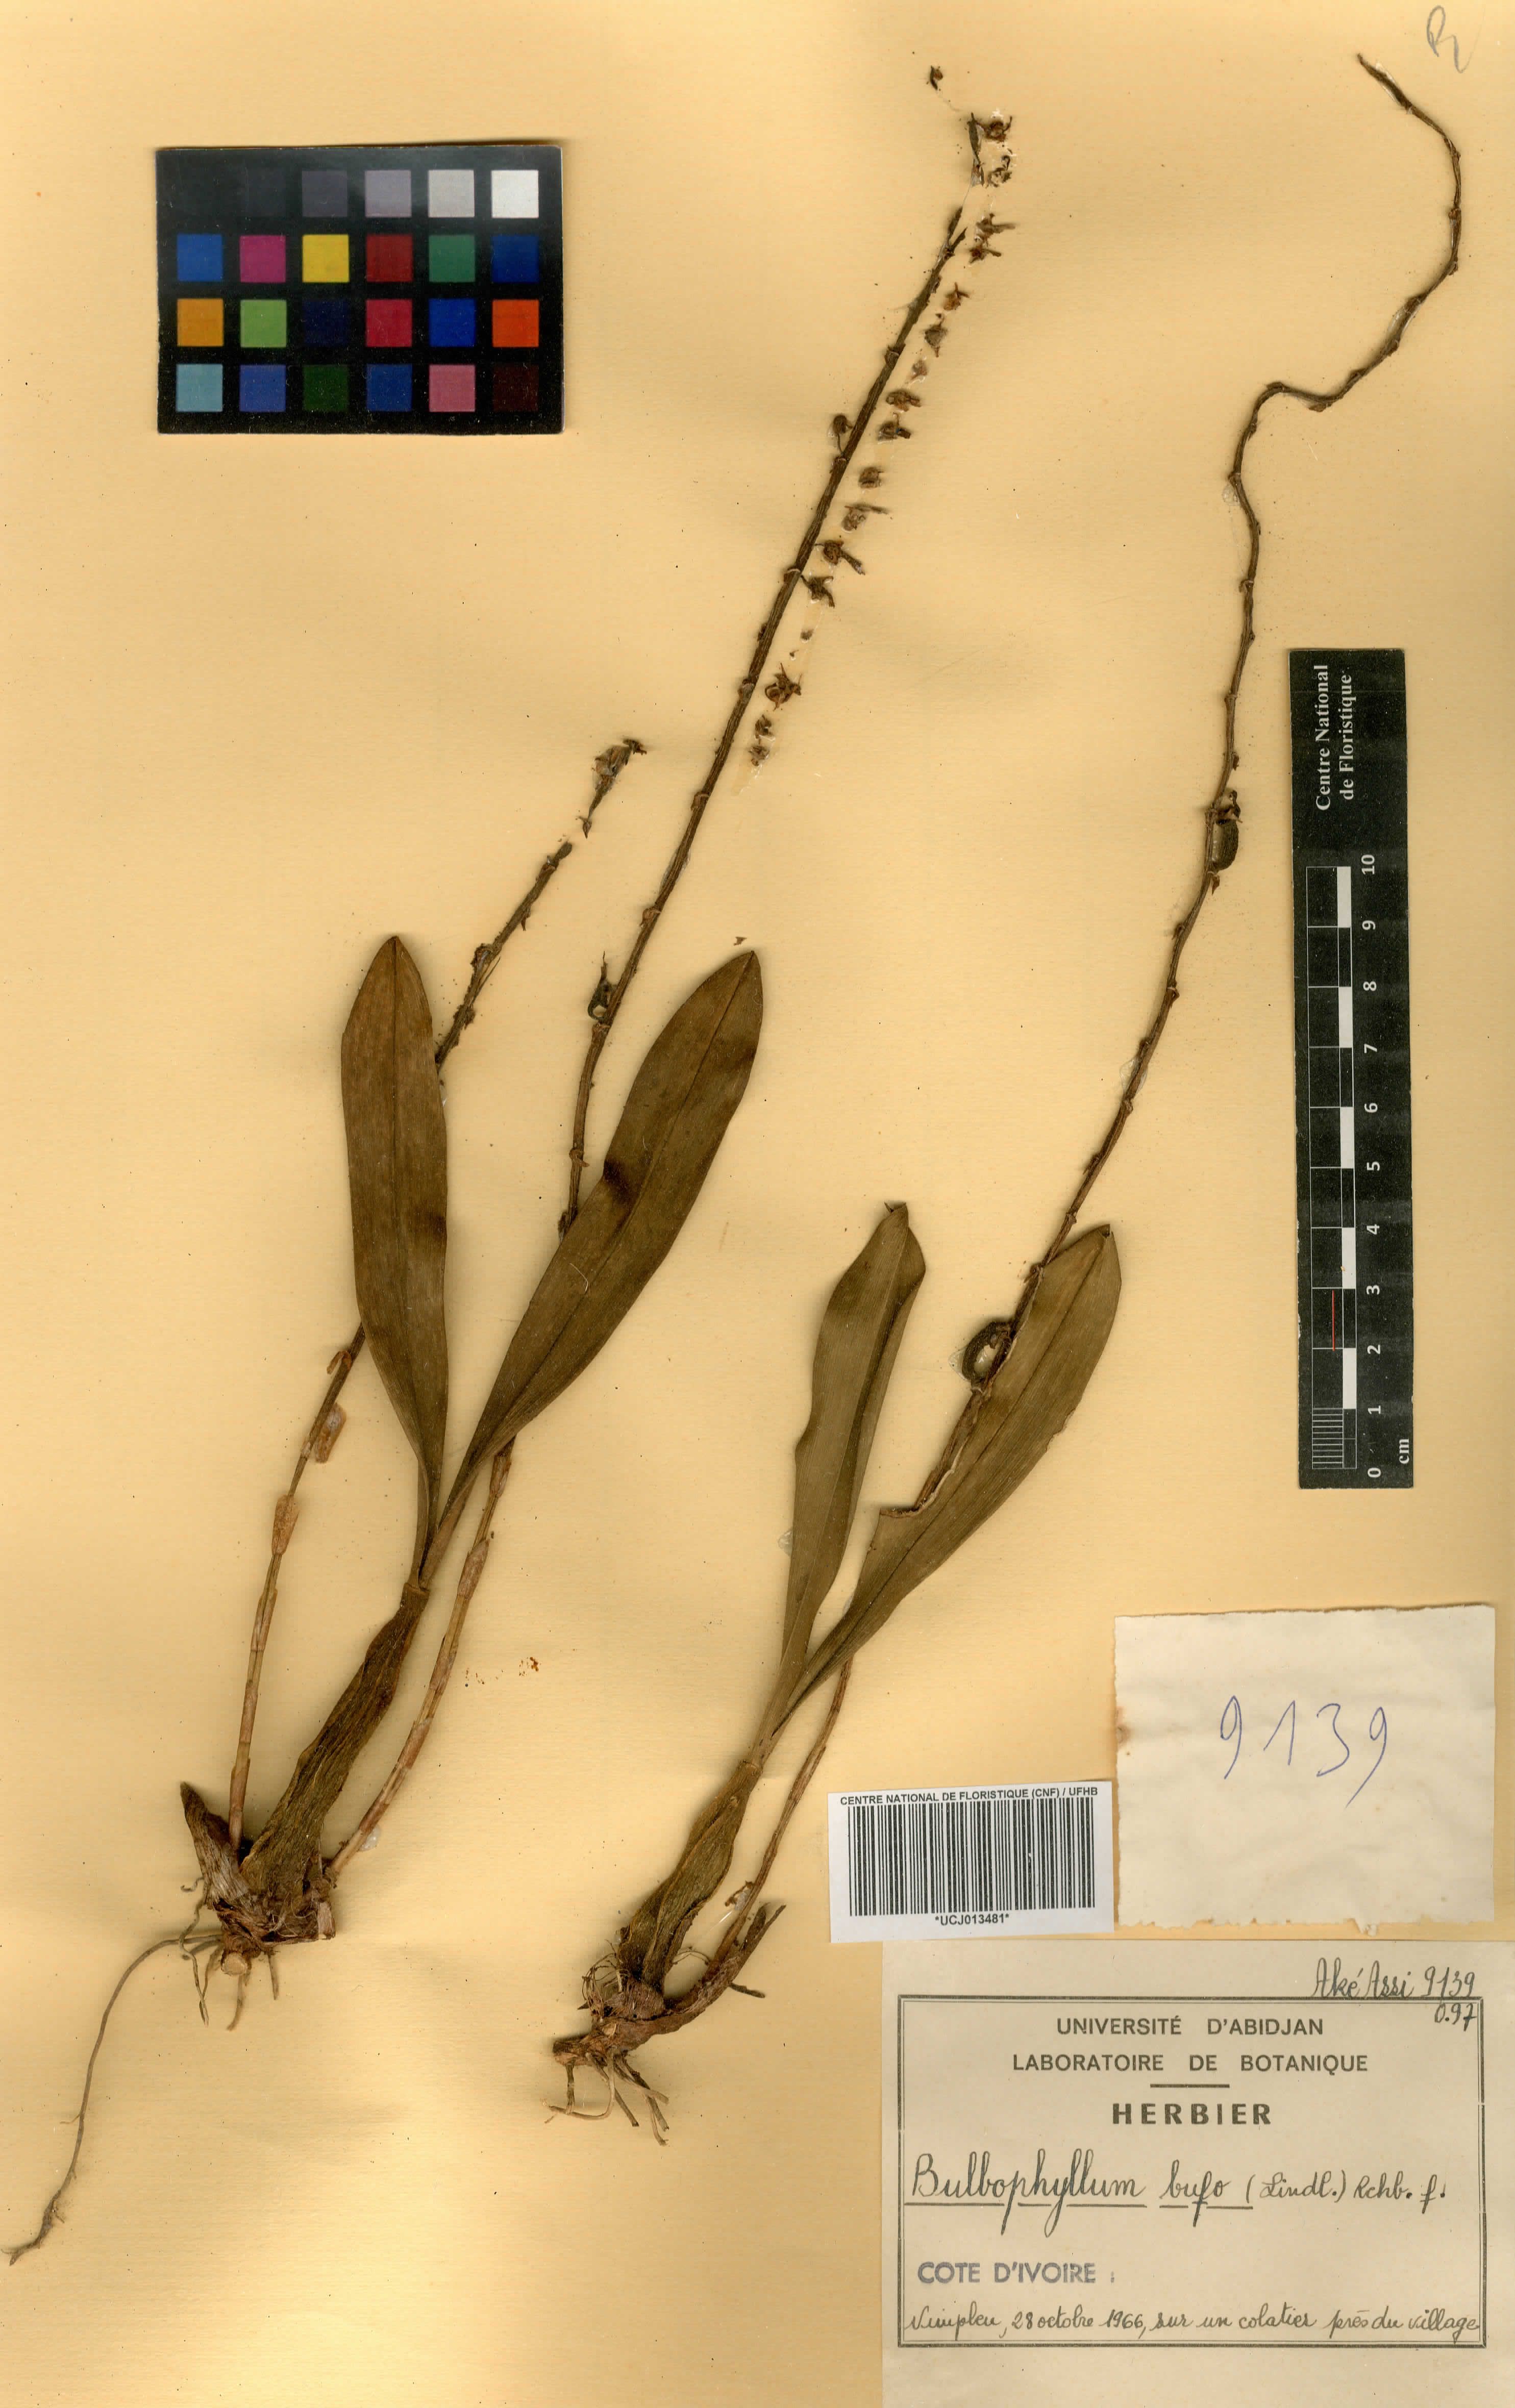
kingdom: Plantae
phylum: Tracheophyta
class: Liliopsida
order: Asparagales
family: Orchidaceae
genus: Bulbophyllum
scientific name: Bulbophyllum falcatum
